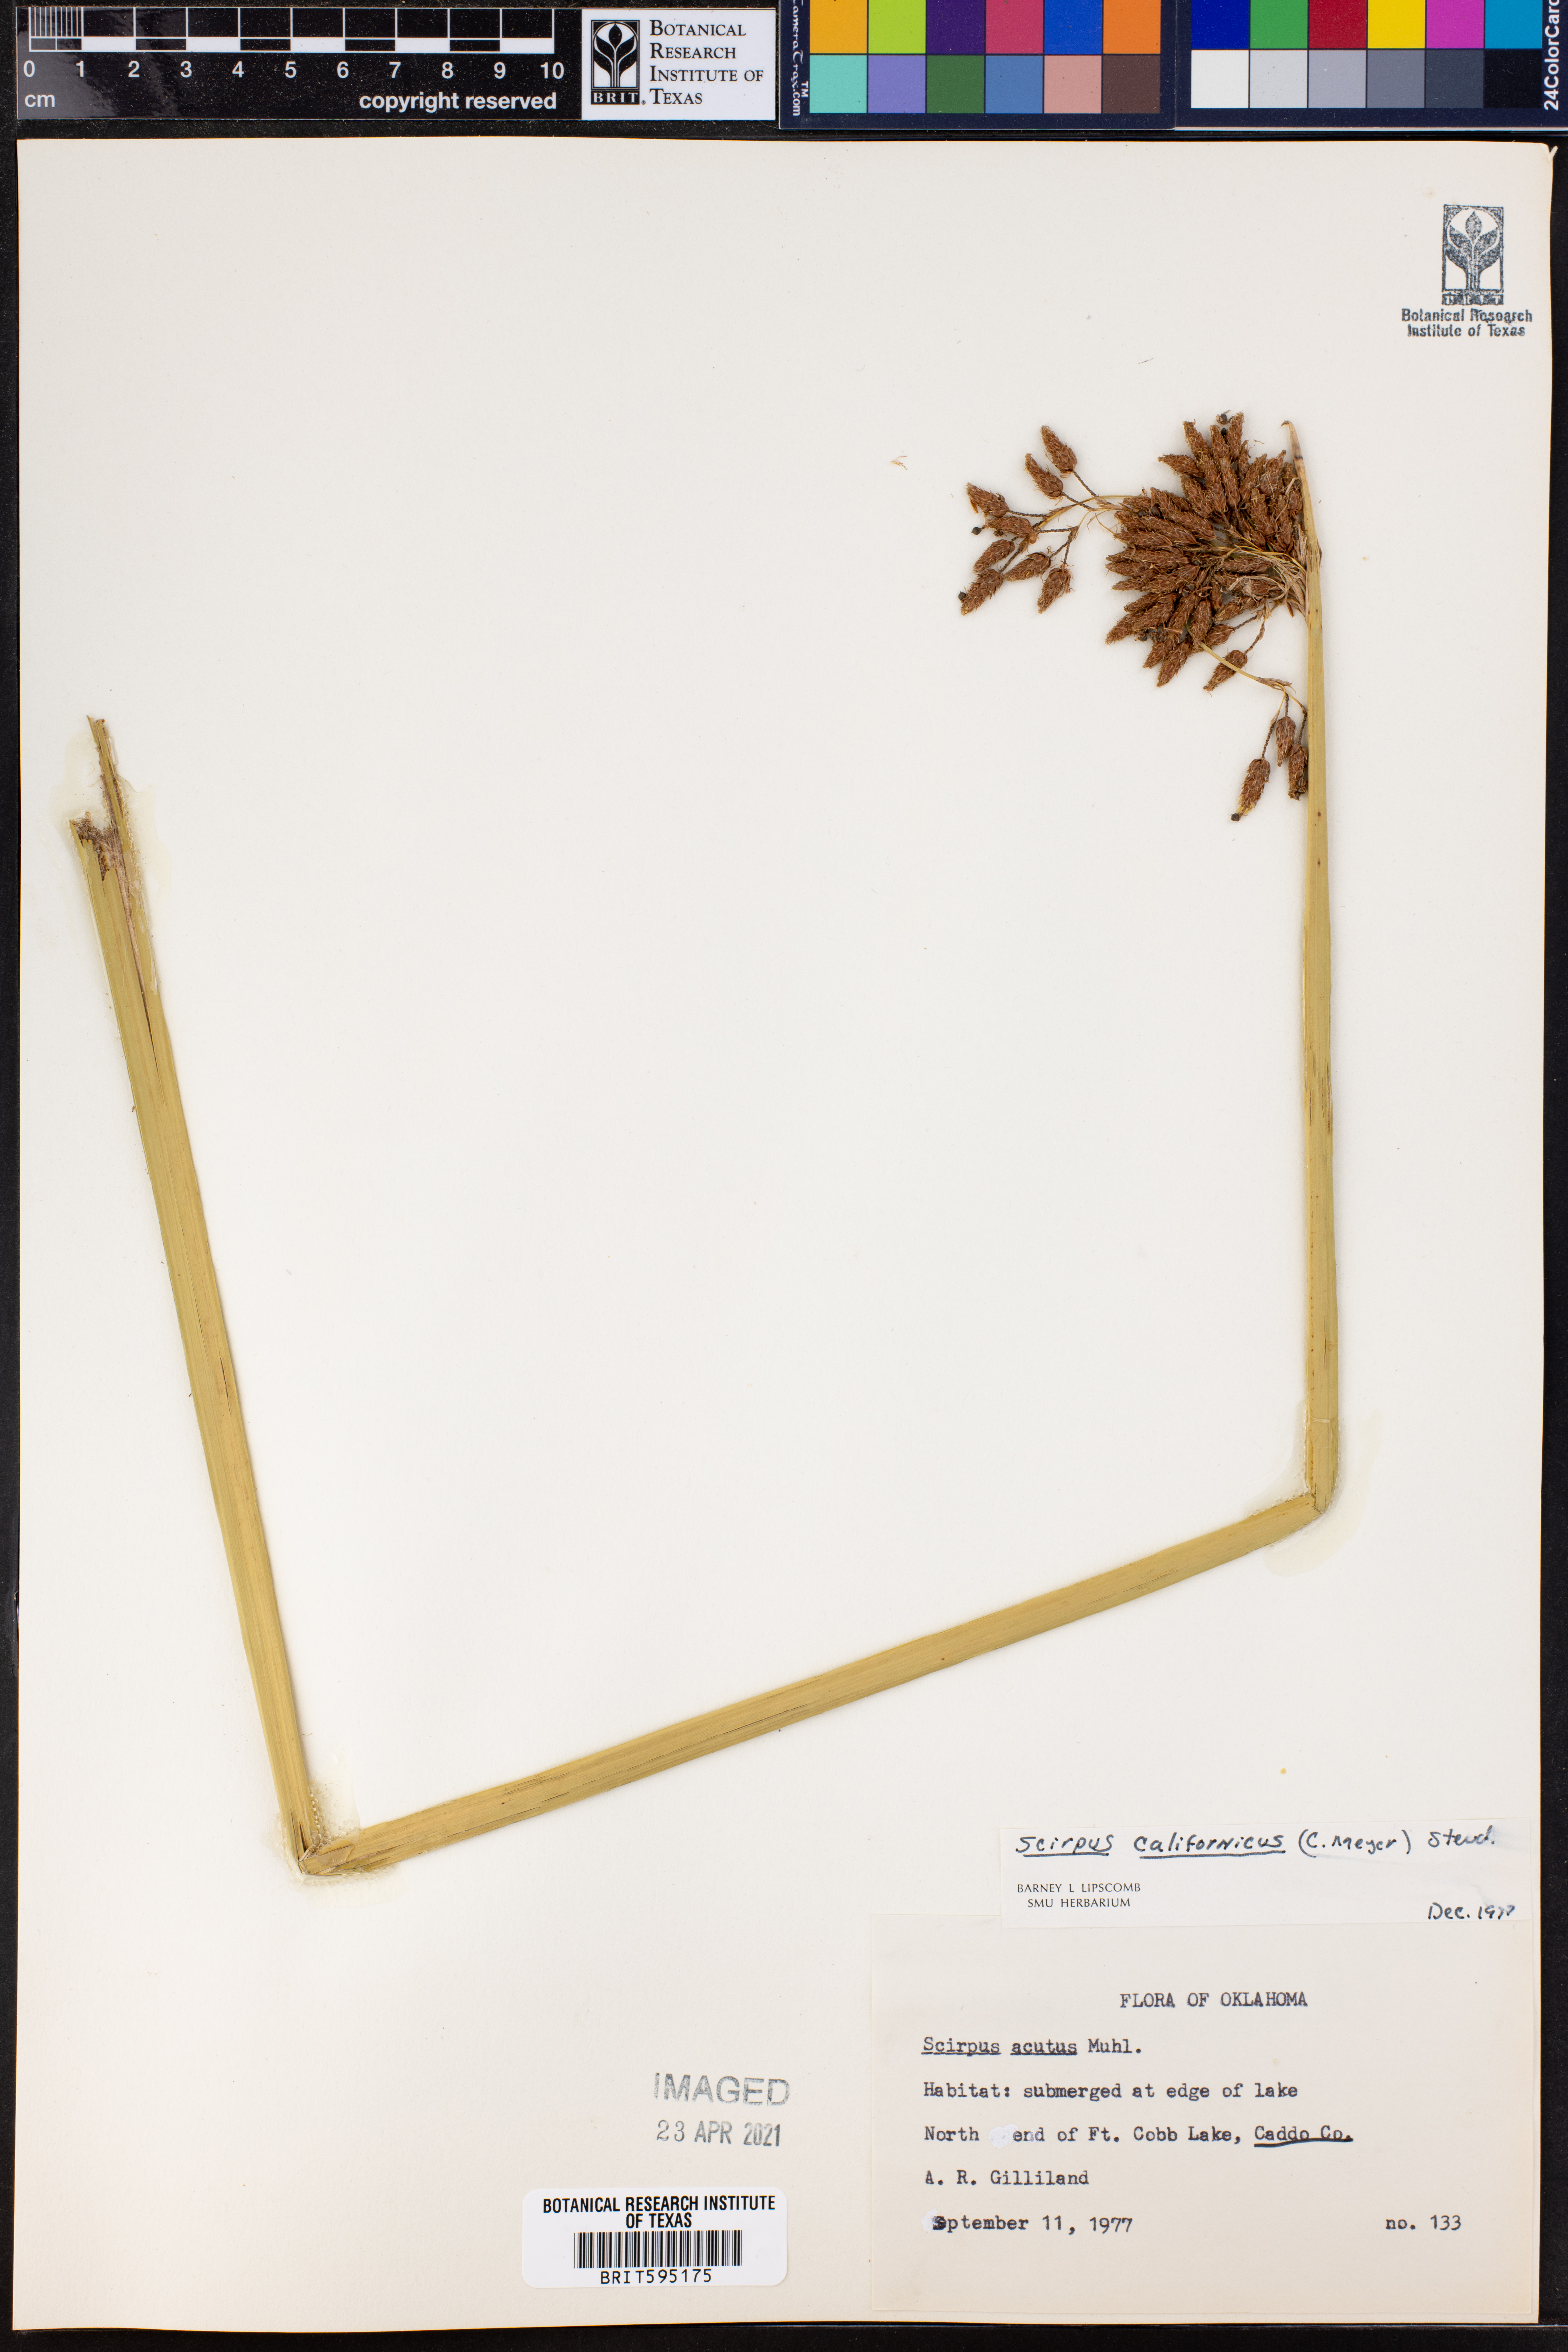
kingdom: Plantae
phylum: Tracheophyta
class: Liliopsida
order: Poales
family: Cyperaceae
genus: Schoenoplectus
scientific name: Schoenoplectus californicus
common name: California bulrush
